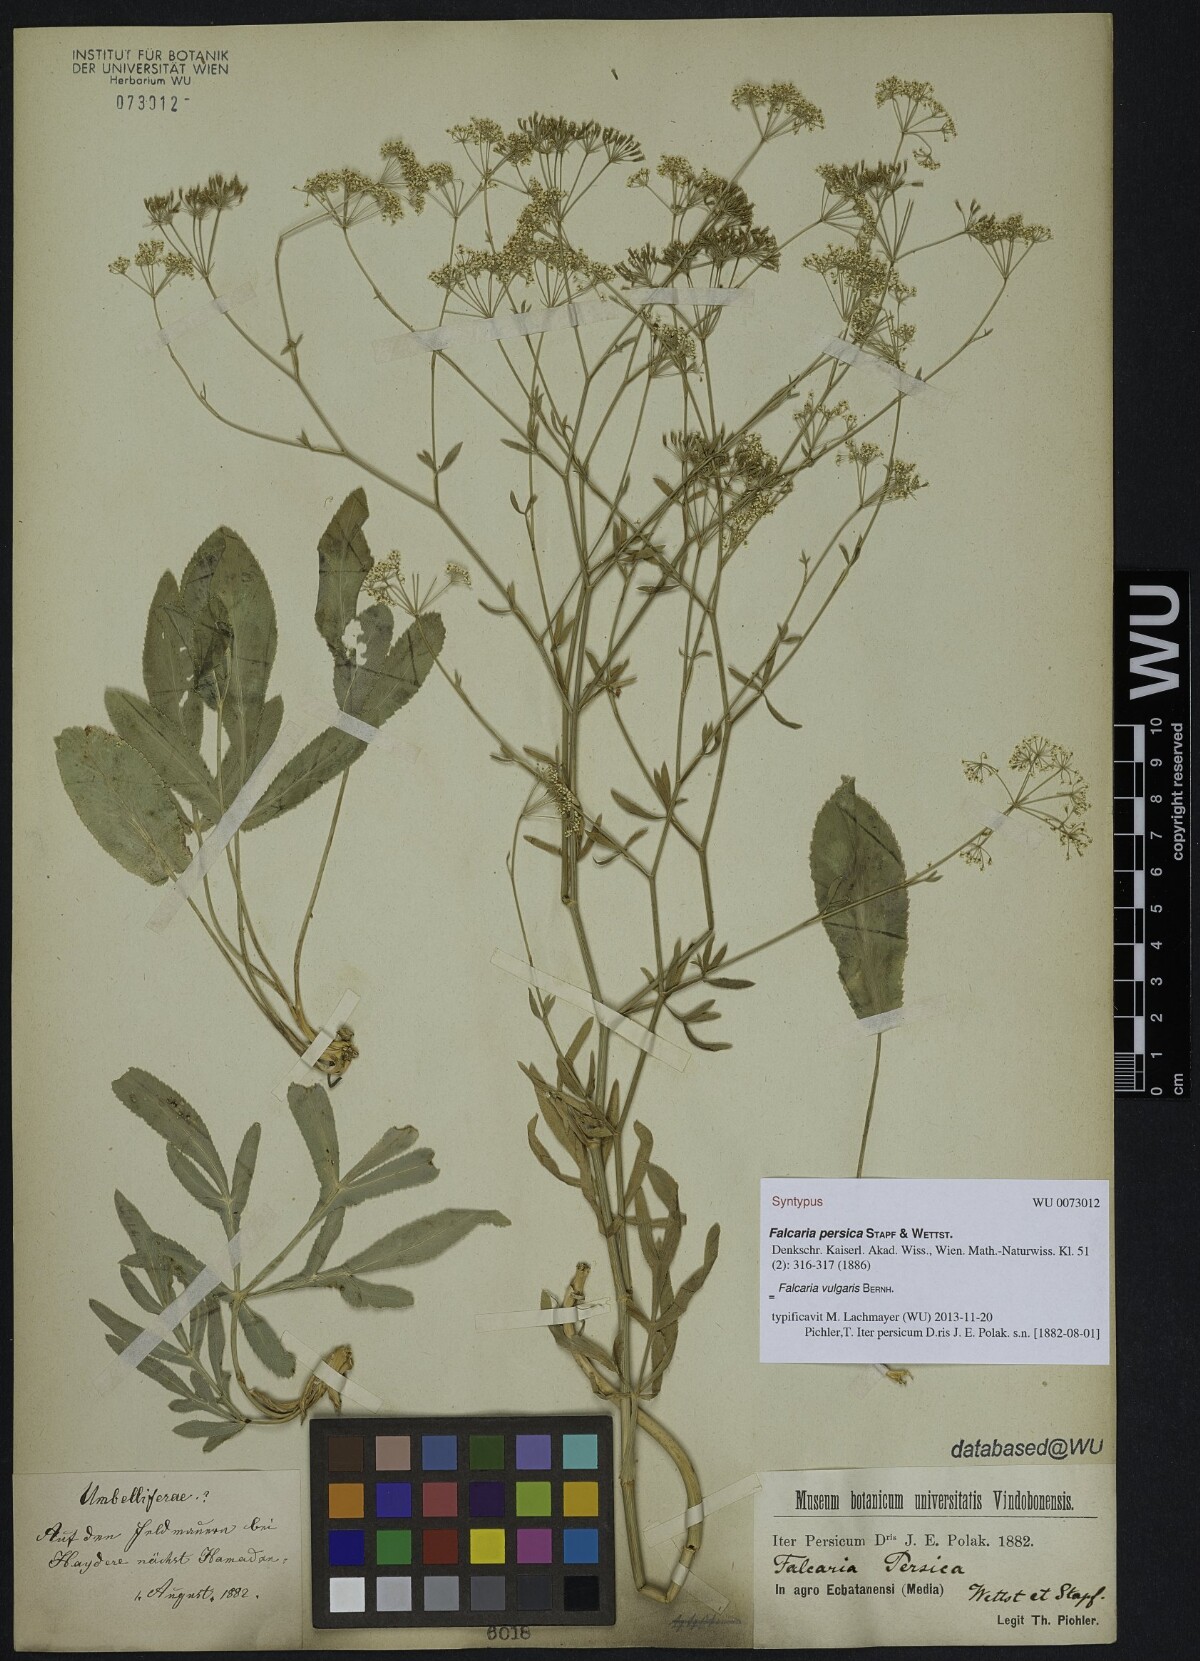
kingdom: Plantae
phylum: Tracheophyta
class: Magnoliopsida
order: Apiales
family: Apiaceae
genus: Falcaria
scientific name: Falcaria vulgaris
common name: Longleaf
